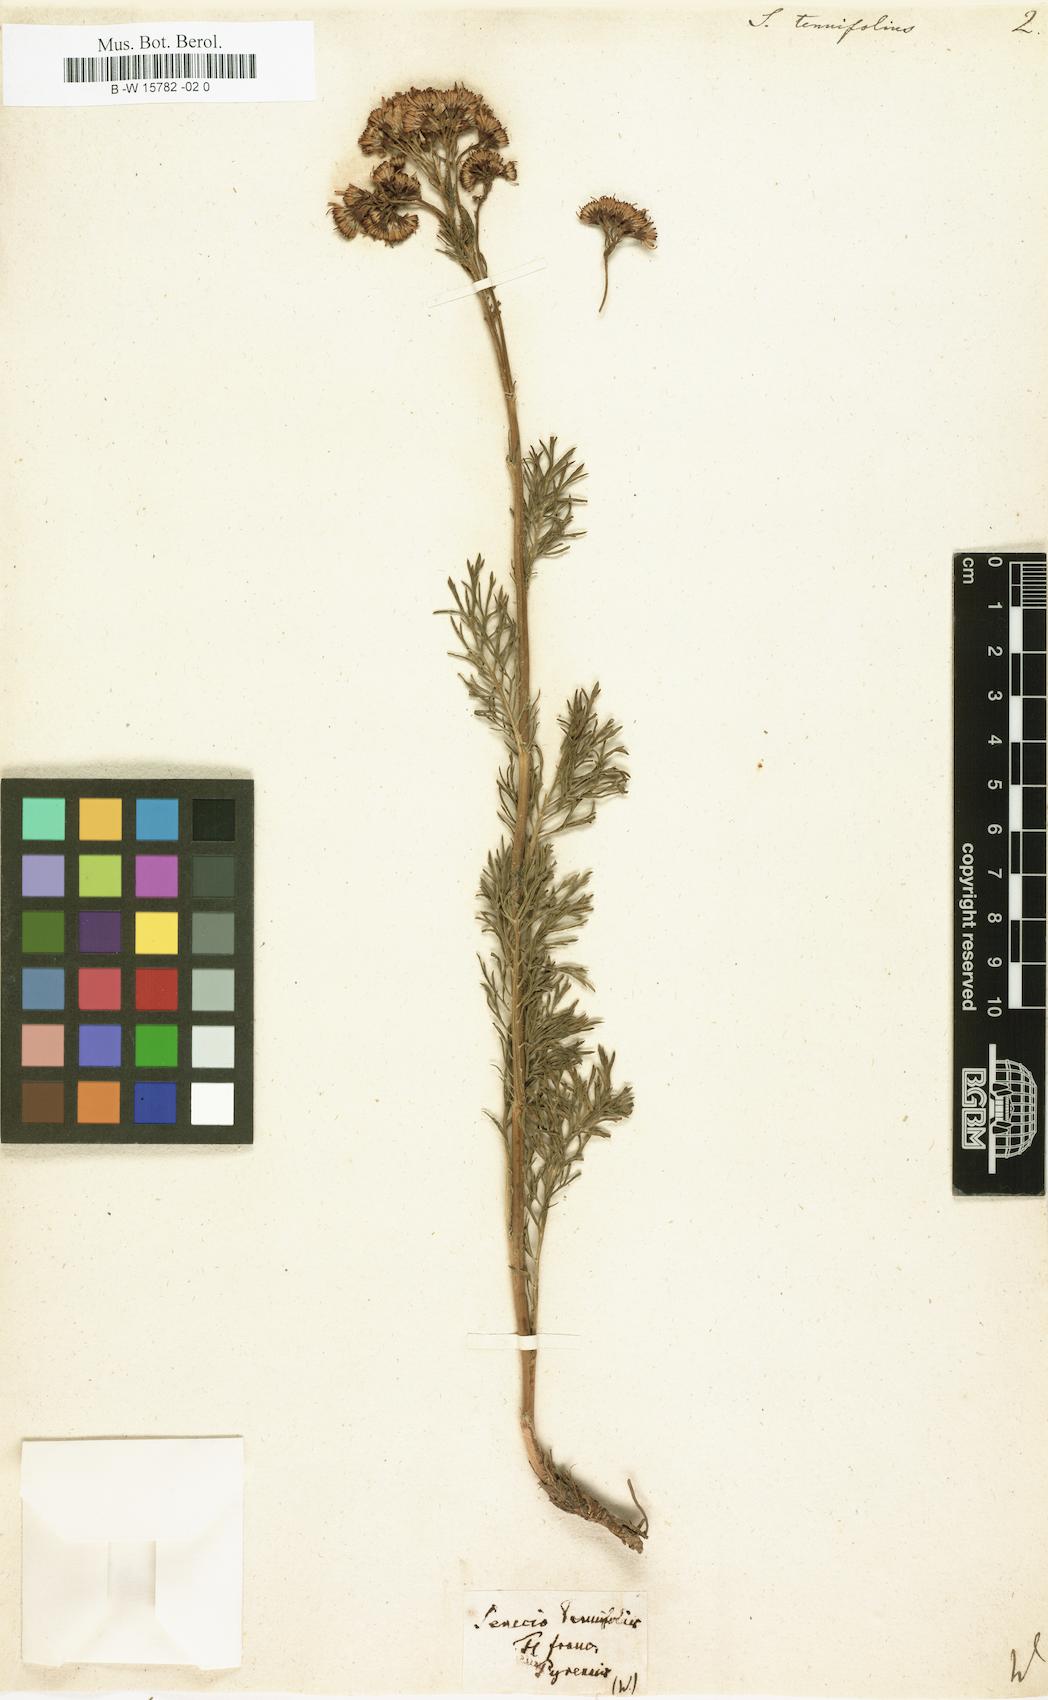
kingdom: Plantae
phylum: Tracheophyta
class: Magnoliopsida
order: Asterales
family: Asteraceae
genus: Senecio
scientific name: Senecio tenuifolius
